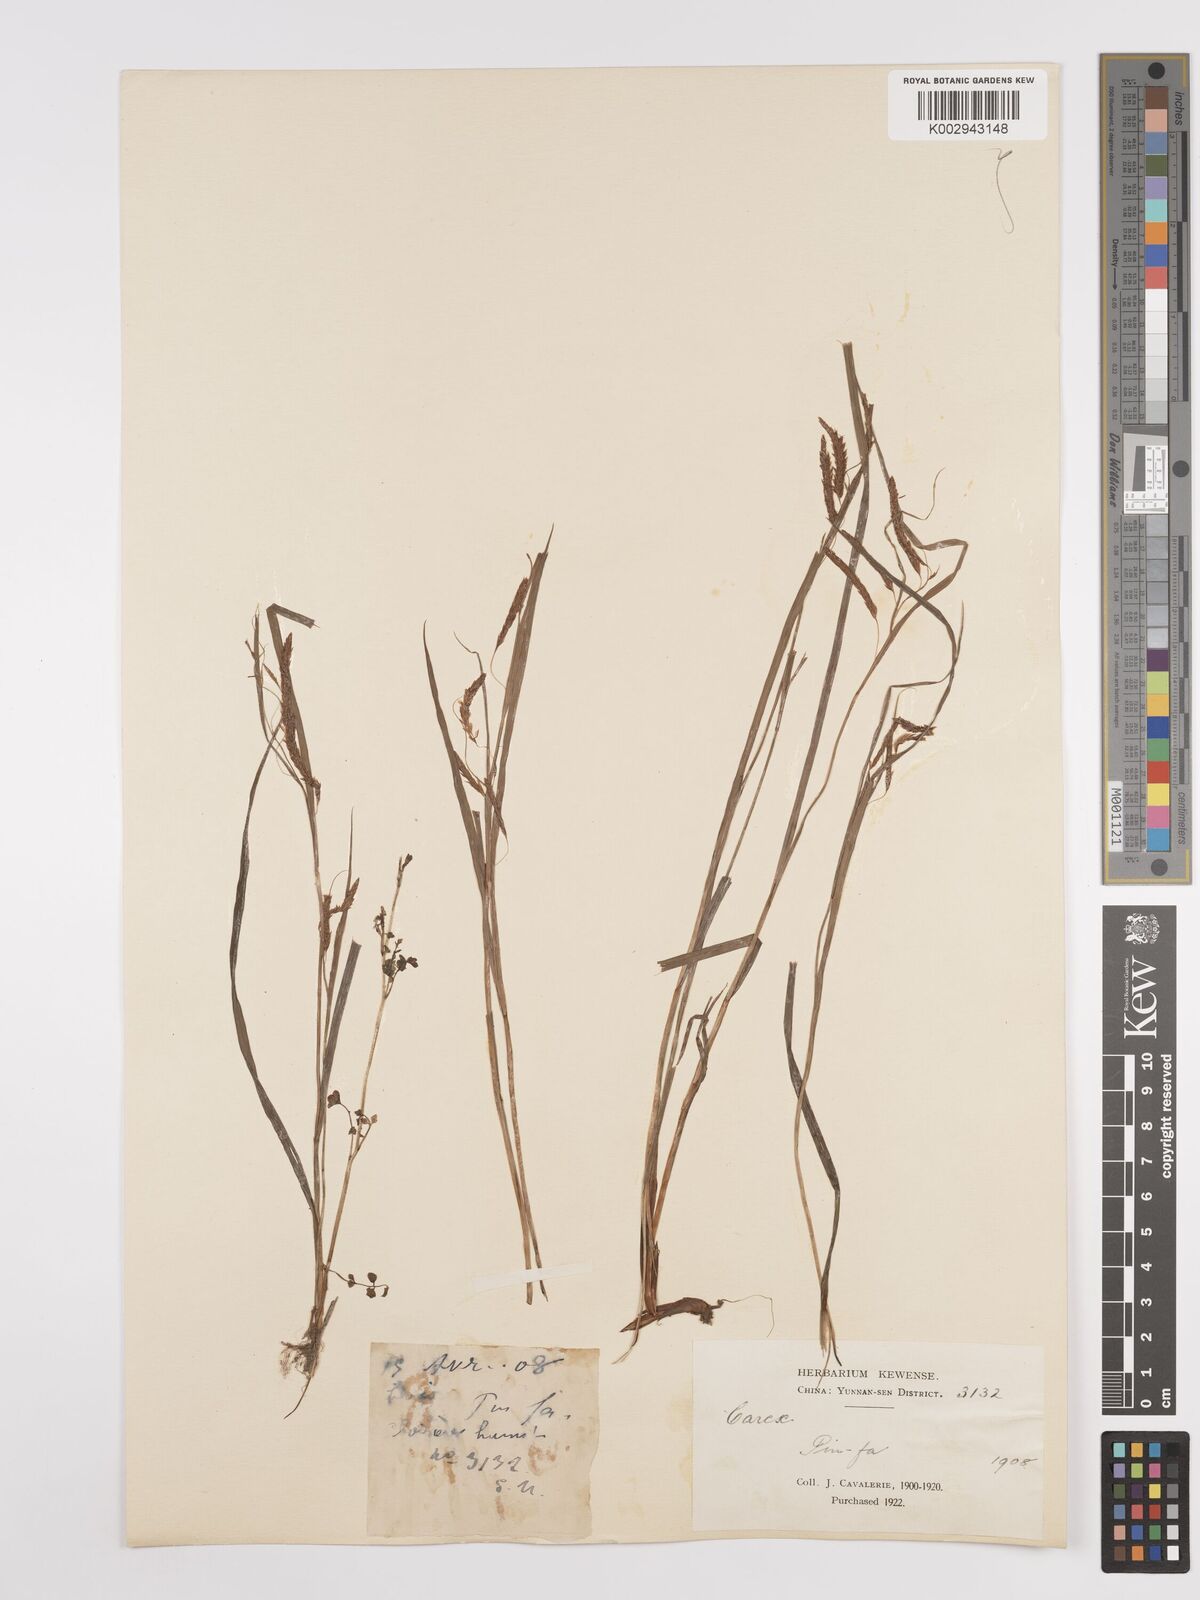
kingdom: Plantae
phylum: Tracheophyta
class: Liliopsida
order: Poales
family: Cyperaceae
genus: Carex
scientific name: Carex
